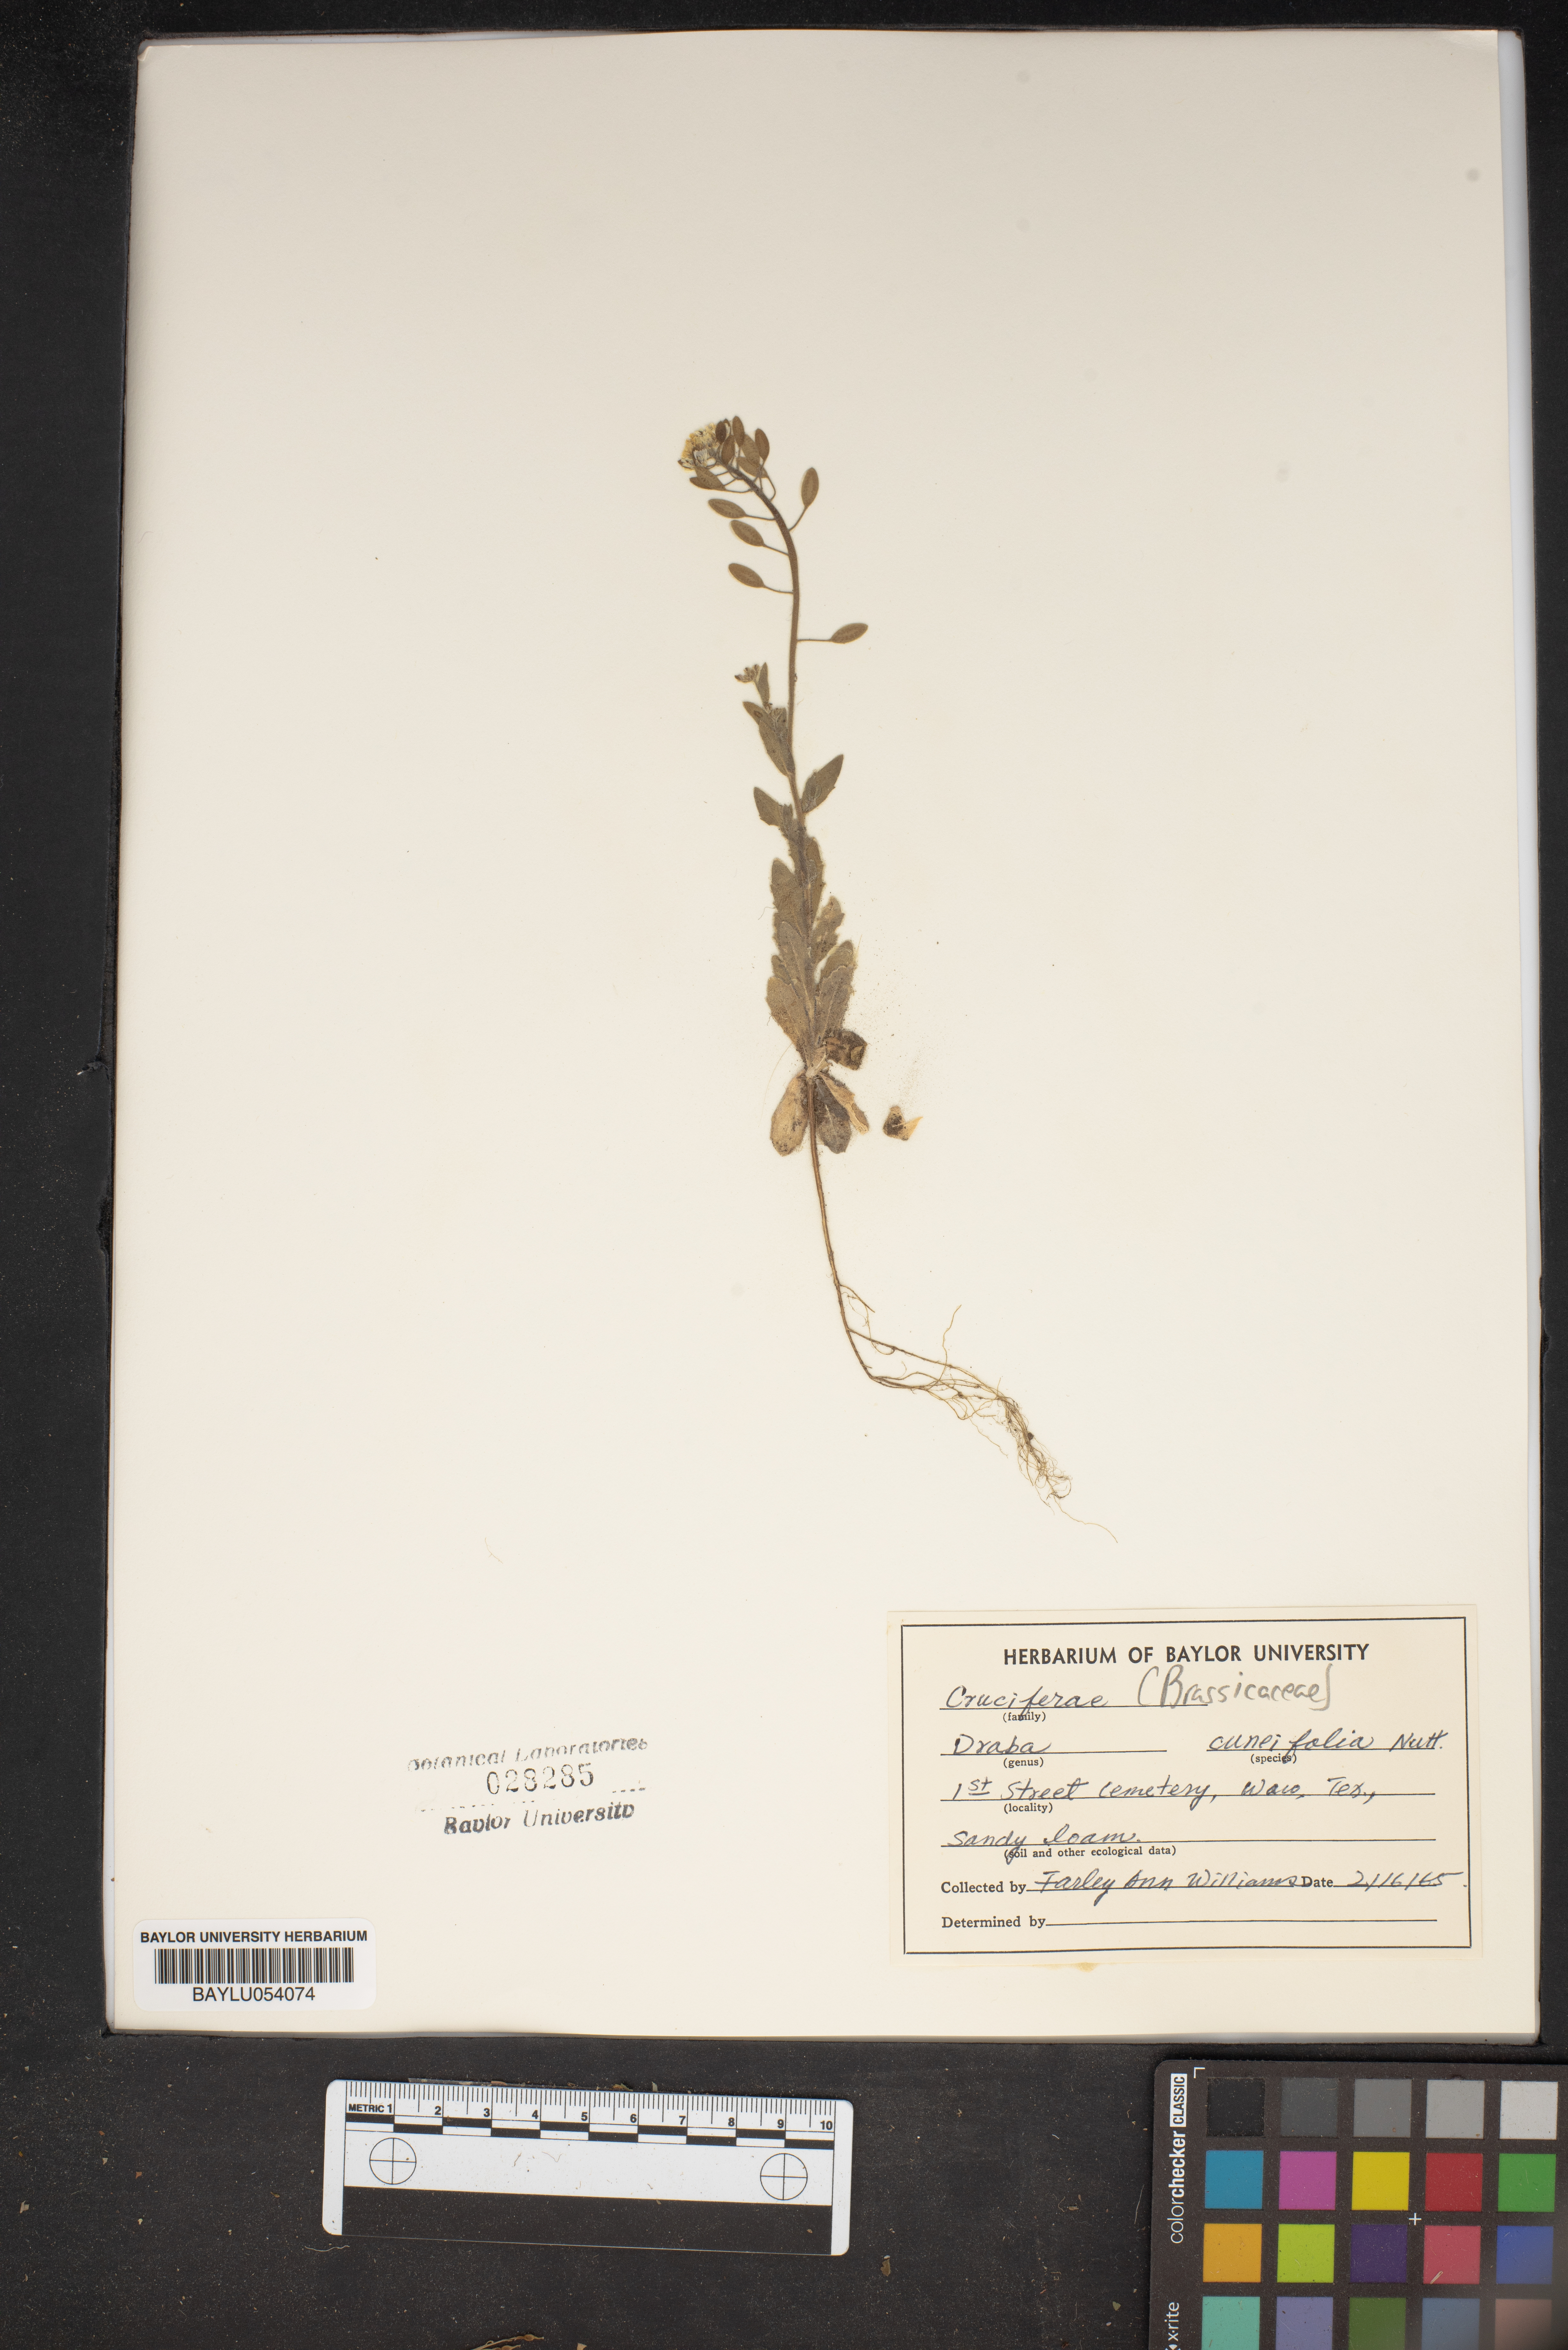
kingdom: Plantae
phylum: Tracheophyta
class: Magnoliopsida
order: Brassicales
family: Brassicaceae
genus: Tomostima
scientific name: Tomostima cuneifolia
